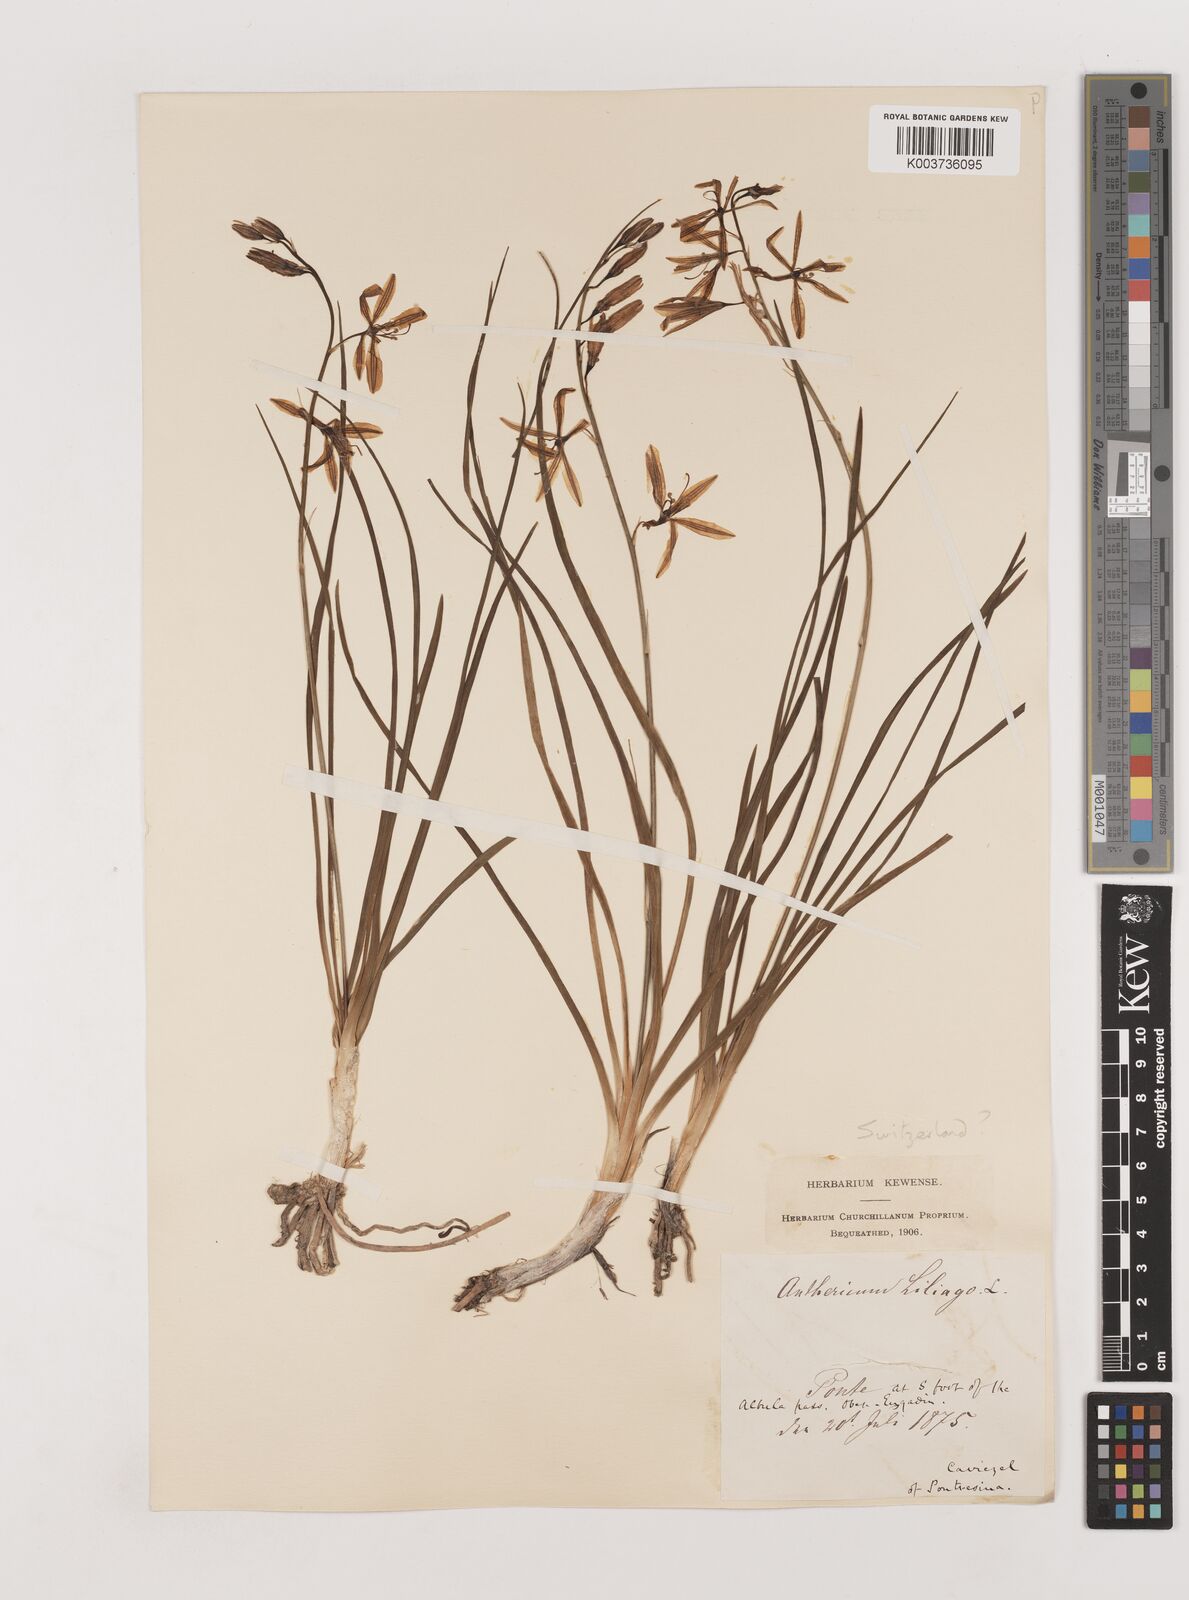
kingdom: Plantae
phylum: Tracheophyta
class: Liliopsida
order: Asparagales
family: Asparagaceae
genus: Anthericum
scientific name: Anthericum liliago
